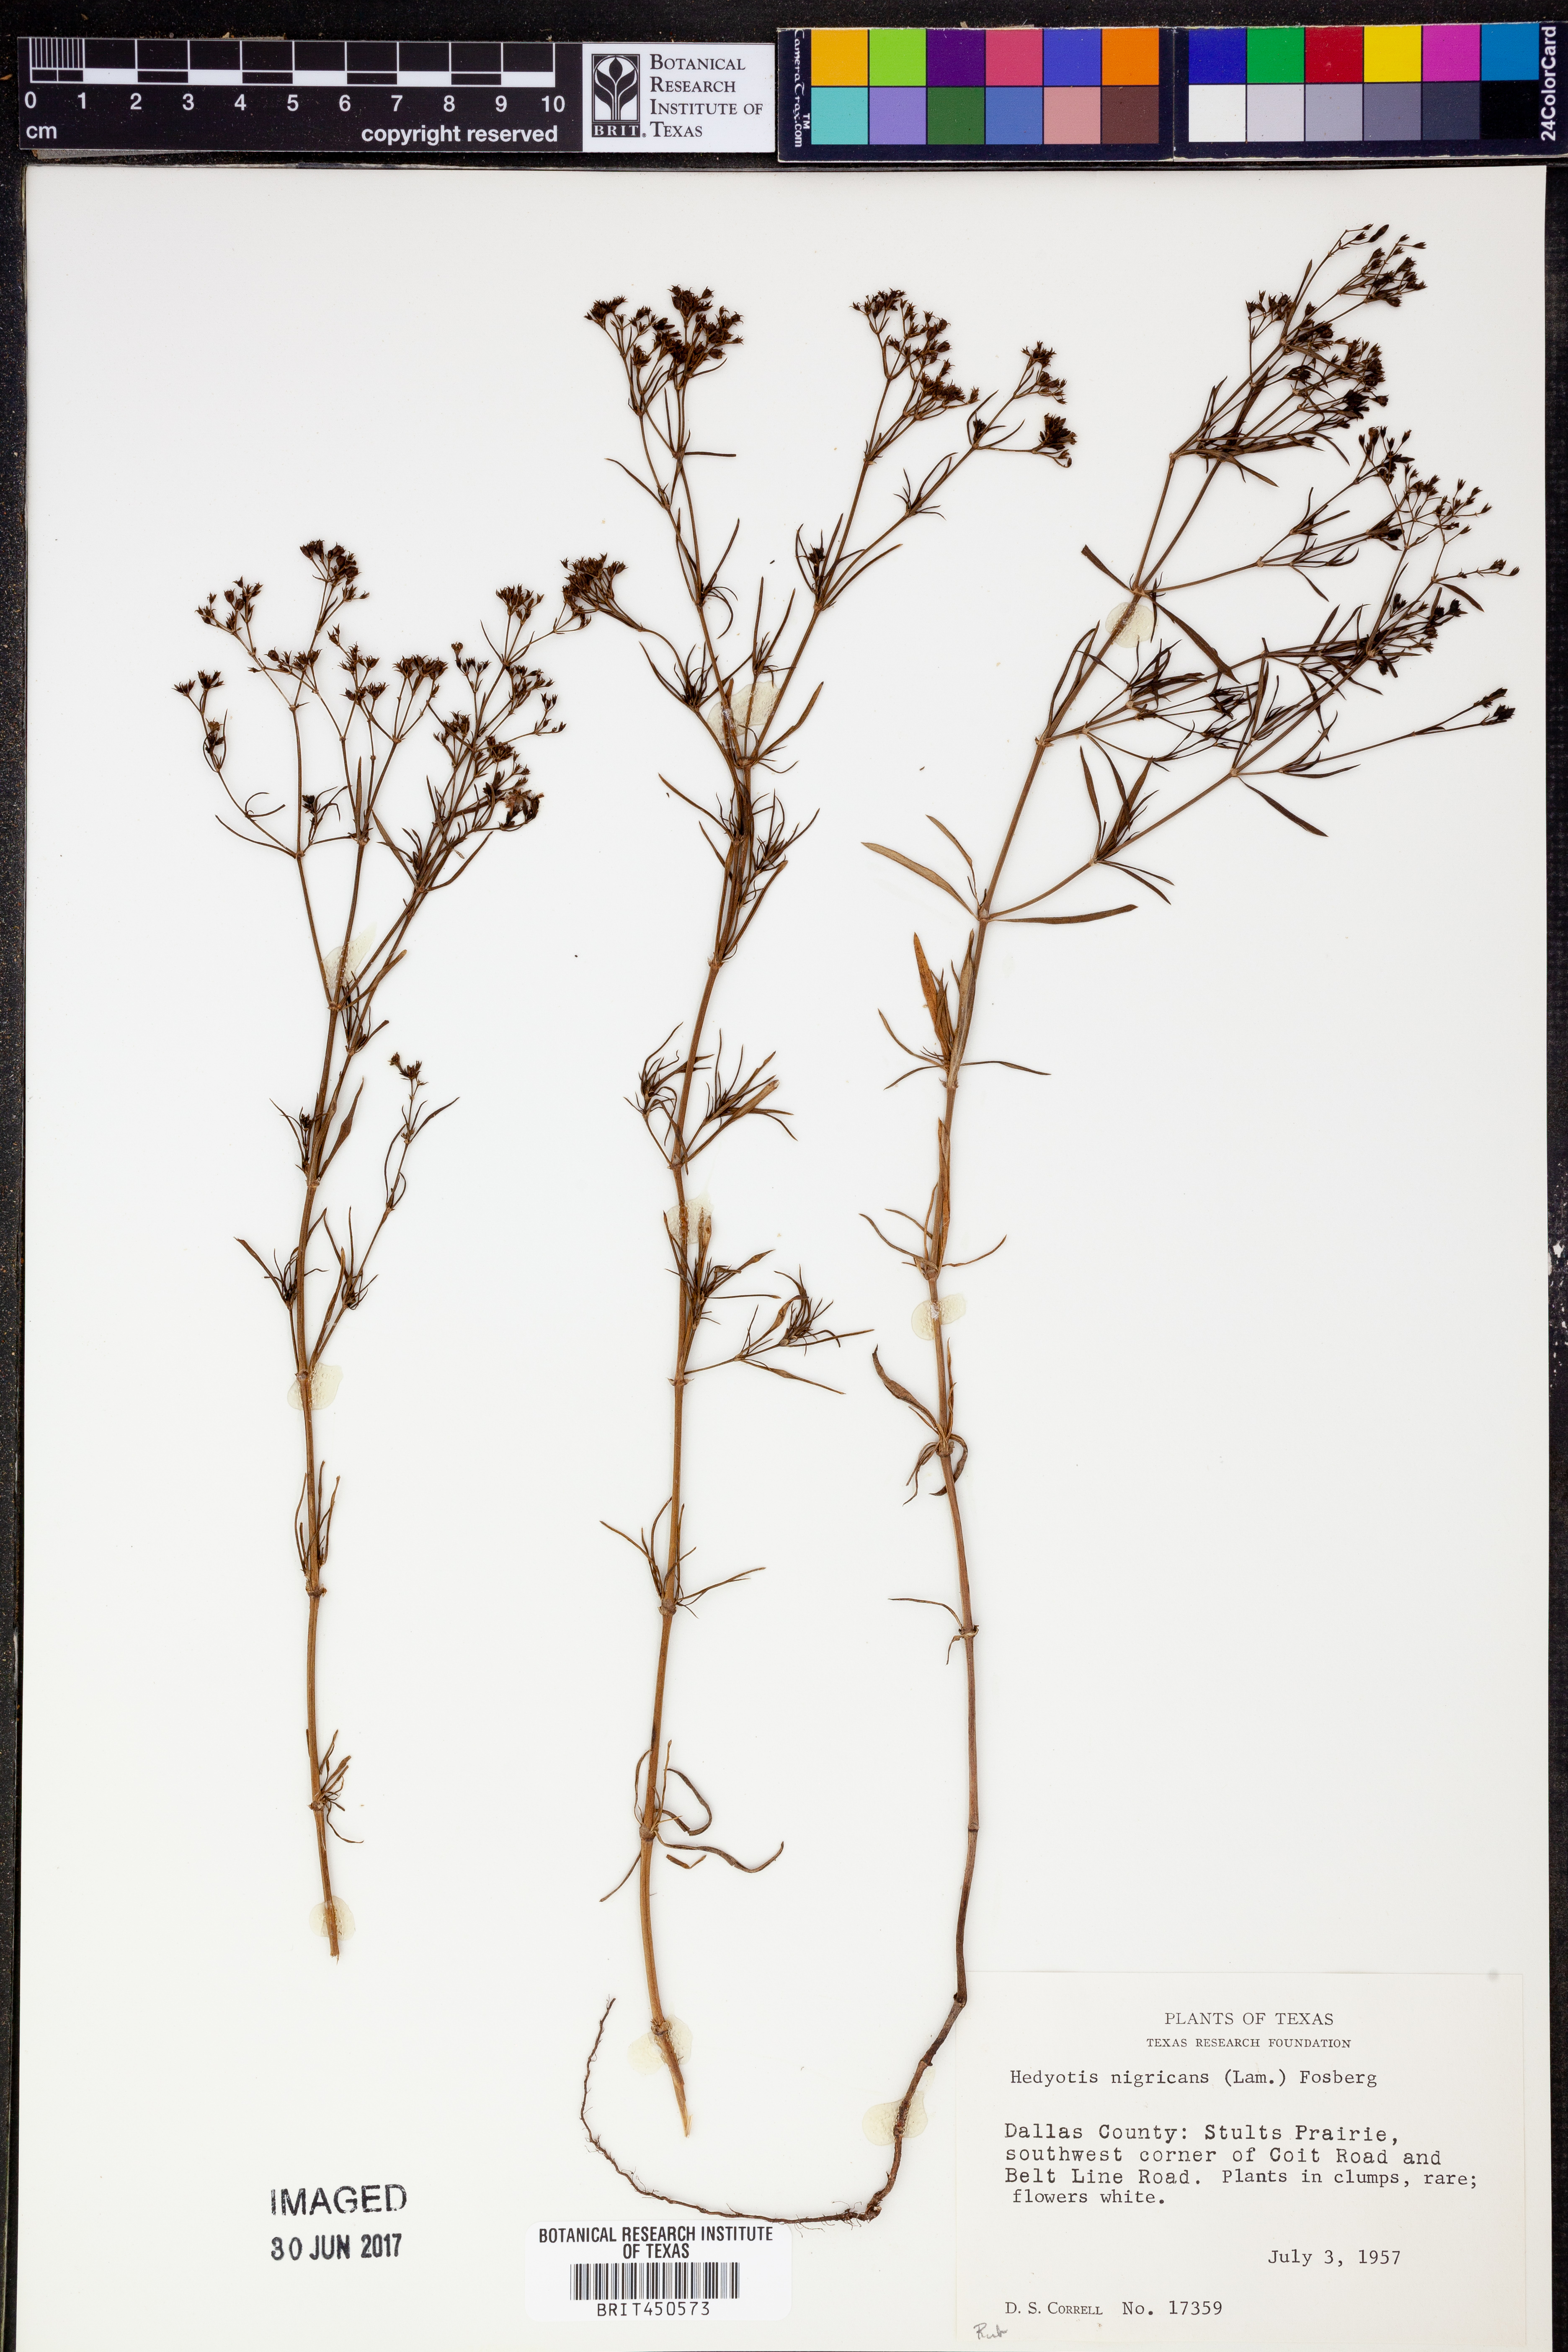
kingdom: Plantae
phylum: Tracheophyta
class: Magnoliopsida
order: Gentianales
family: Rubiaceae
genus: Stenaria
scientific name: Stenaria nigricans
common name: Diamondflowers
